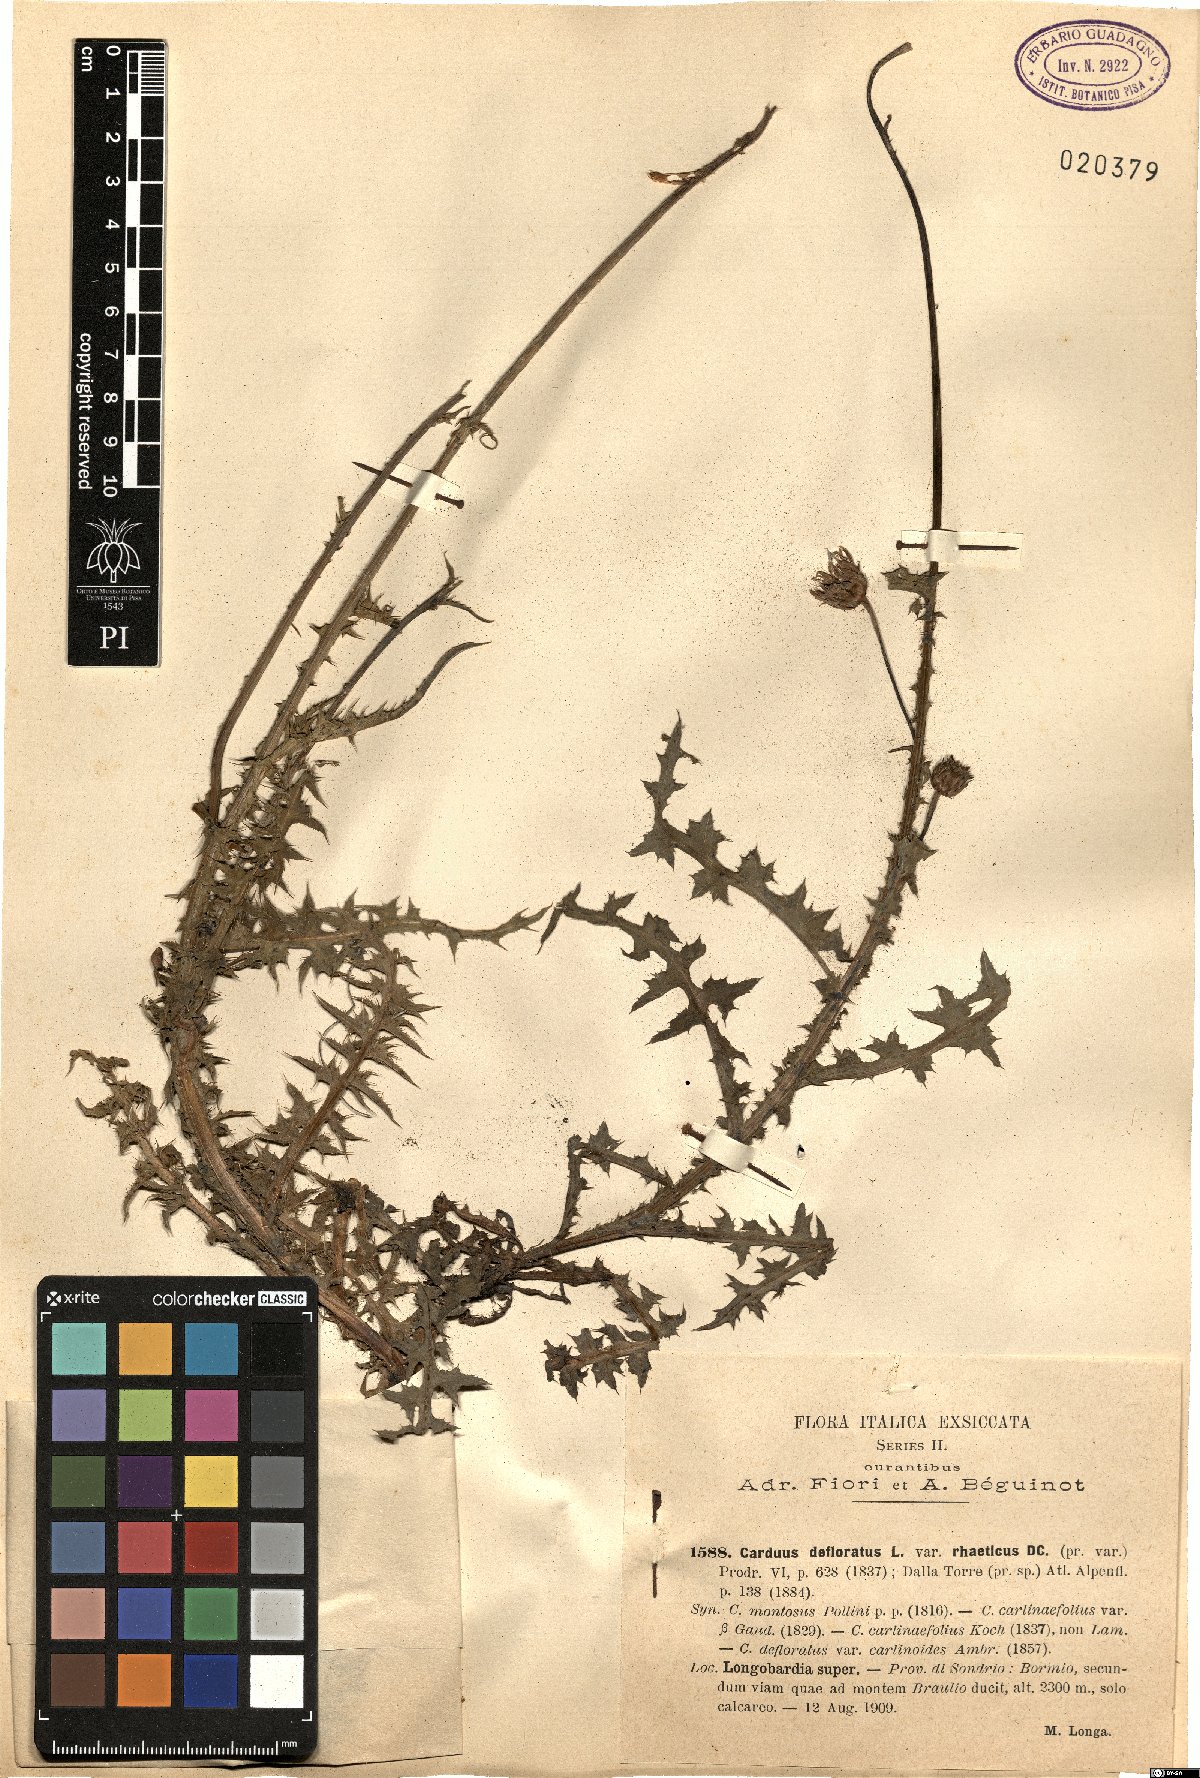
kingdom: Plantae
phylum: Tracheophyta
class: Magnoliopsida
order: Asterales
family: Asteraceae
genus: Carduus
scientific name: Carduus defloratus
